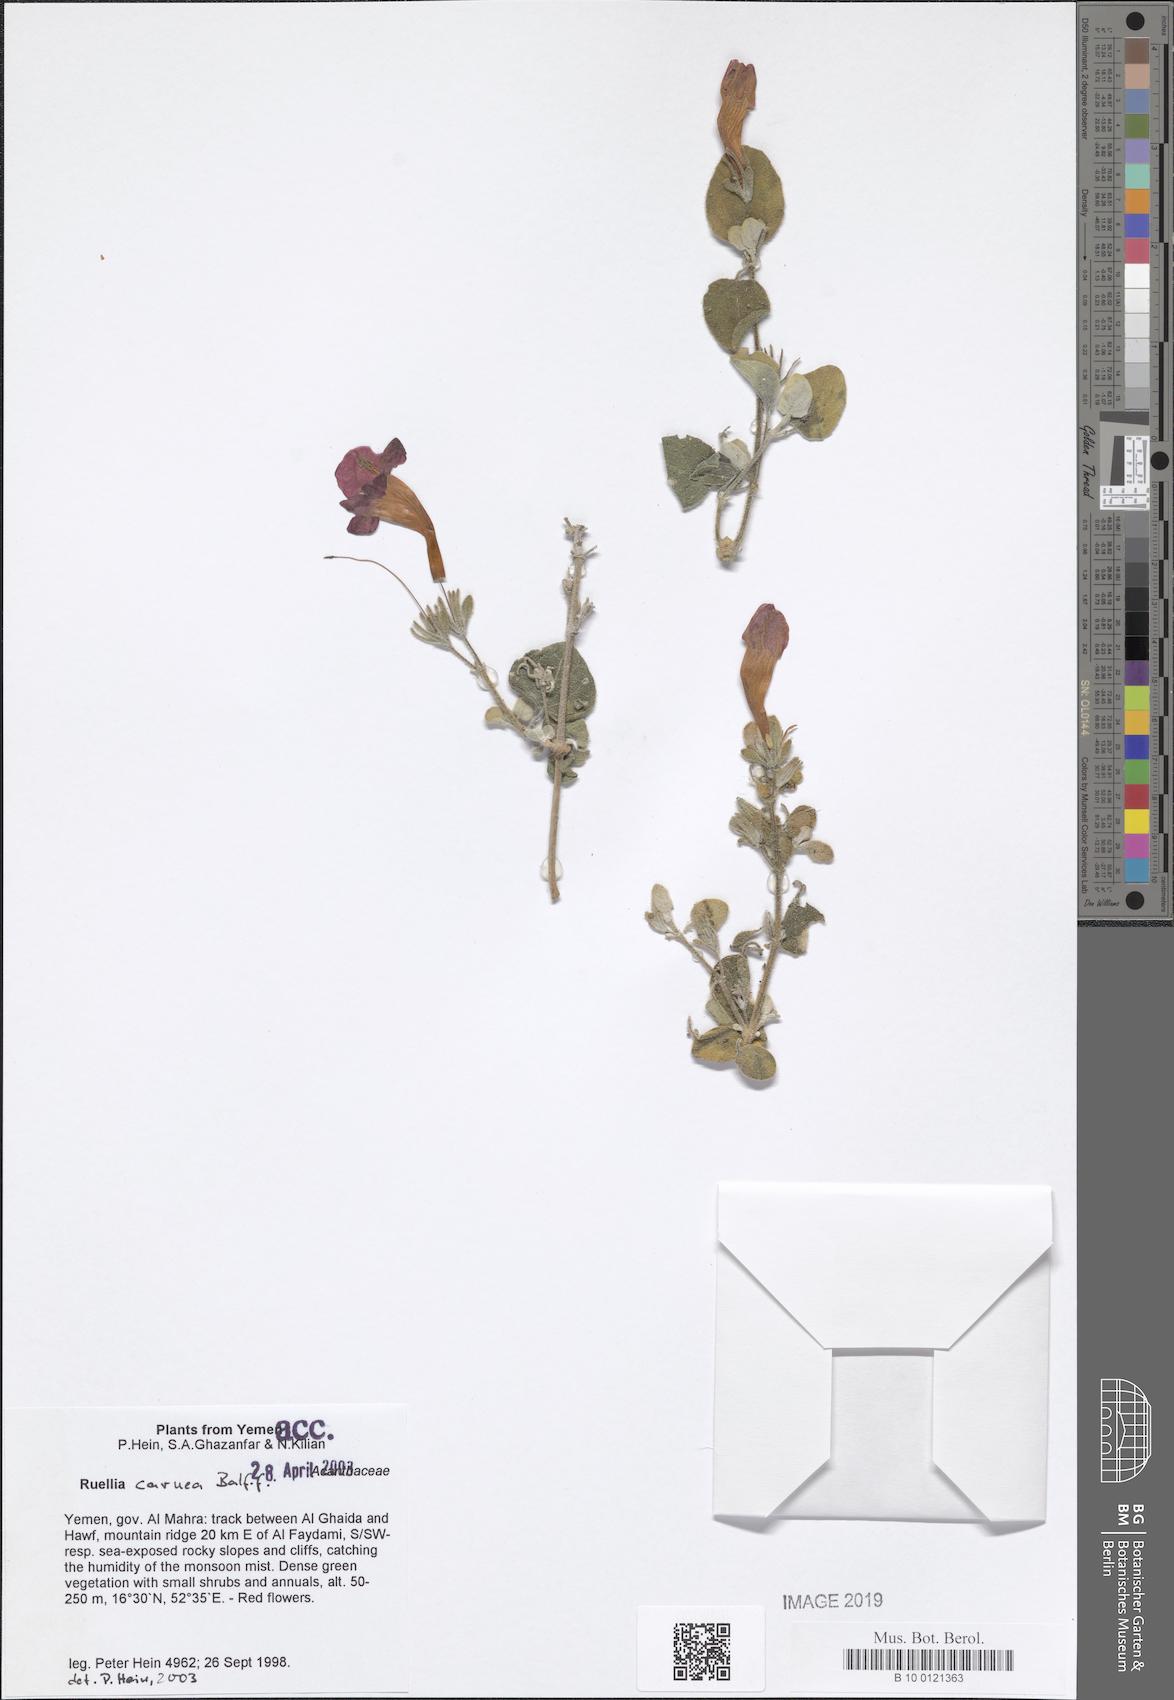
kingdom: Plantae
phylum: Tracheophyta
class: Magnoliopsida
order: Lamiales
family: Acanthaceae
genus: Ruellia
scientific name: Ruellia carnea
